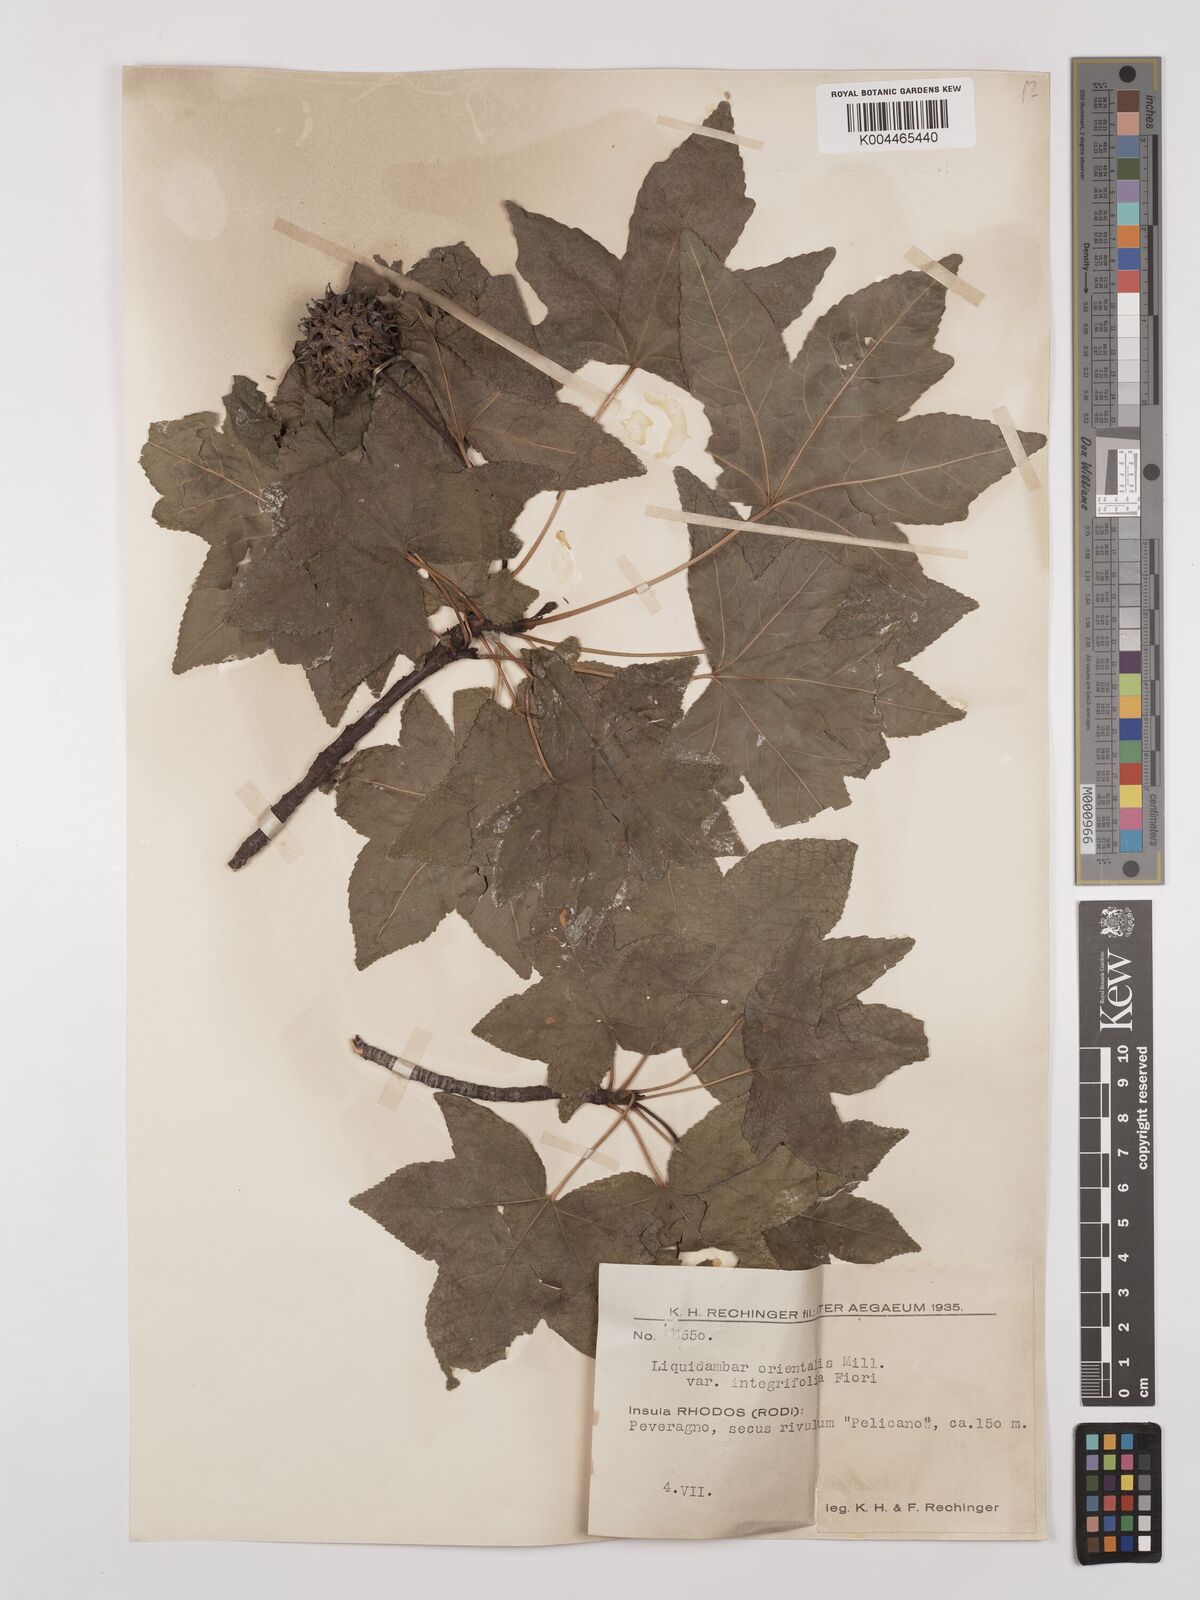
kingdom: Plantae
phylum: Tracheophyta
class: Magnoliopsida
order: Saxifragales
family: Altingiaceae
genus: Liquidambar
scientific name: Liquidambar orientalis
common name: Oriental sweetgum
